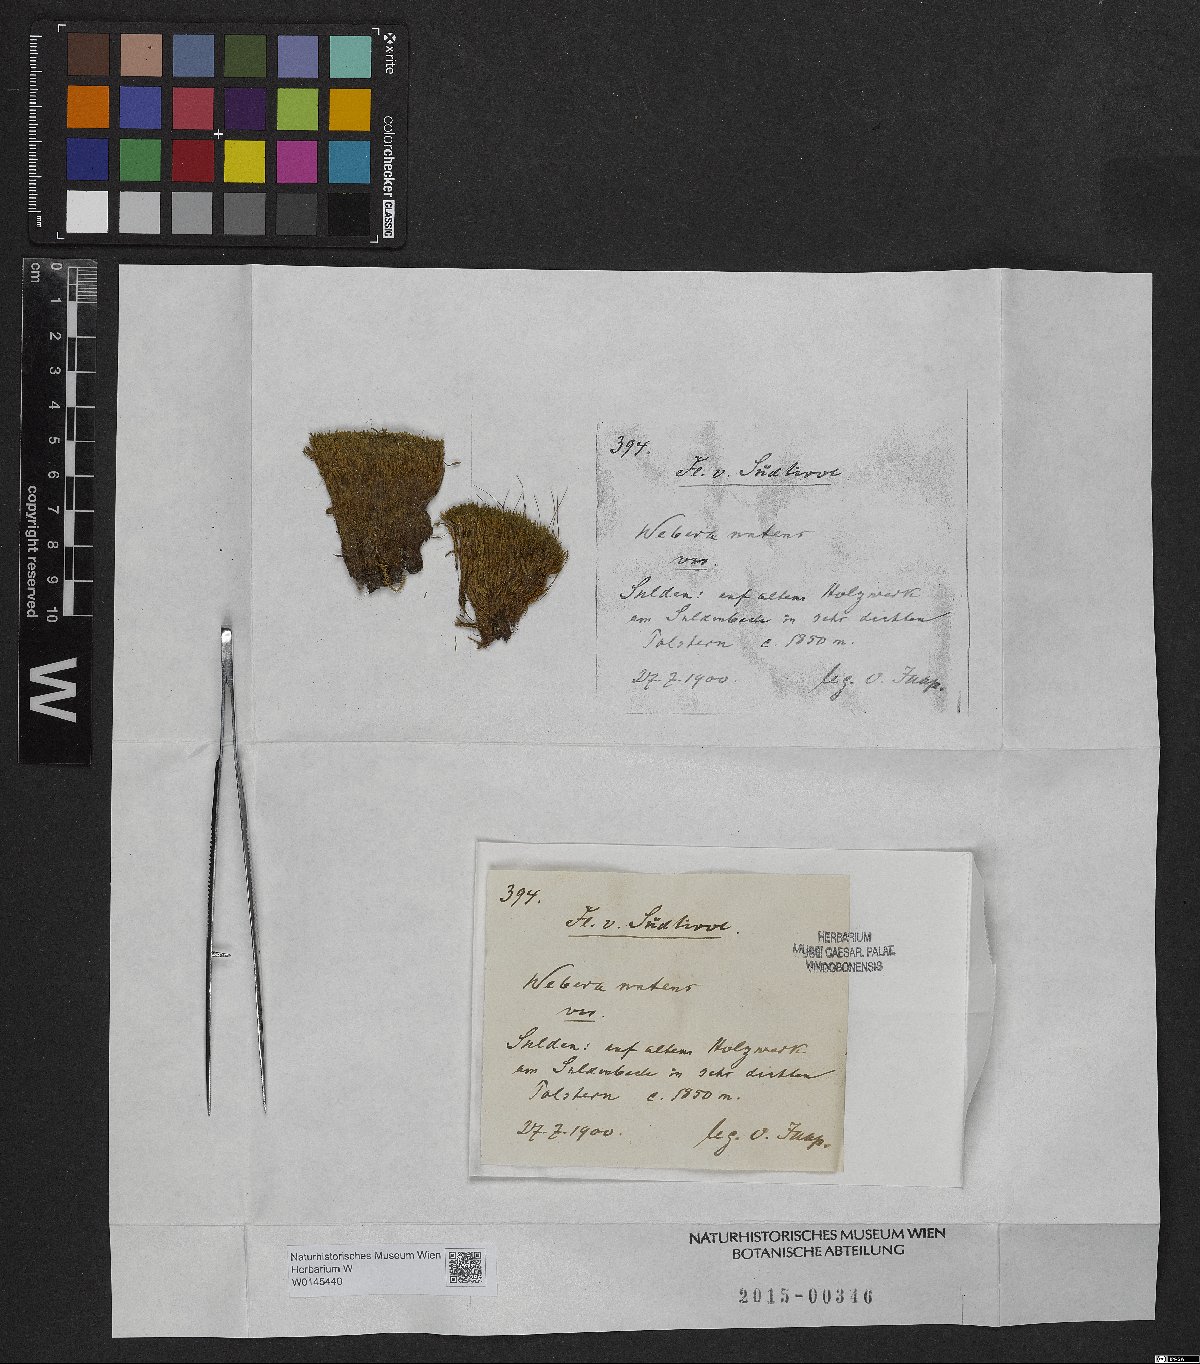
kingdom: Plantae
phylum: Bryophyta
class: Bryopsida
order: Bryales
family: Mniaceae
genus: Pohlia
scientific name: Pohlia nutans
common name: Nodding thread-moss
